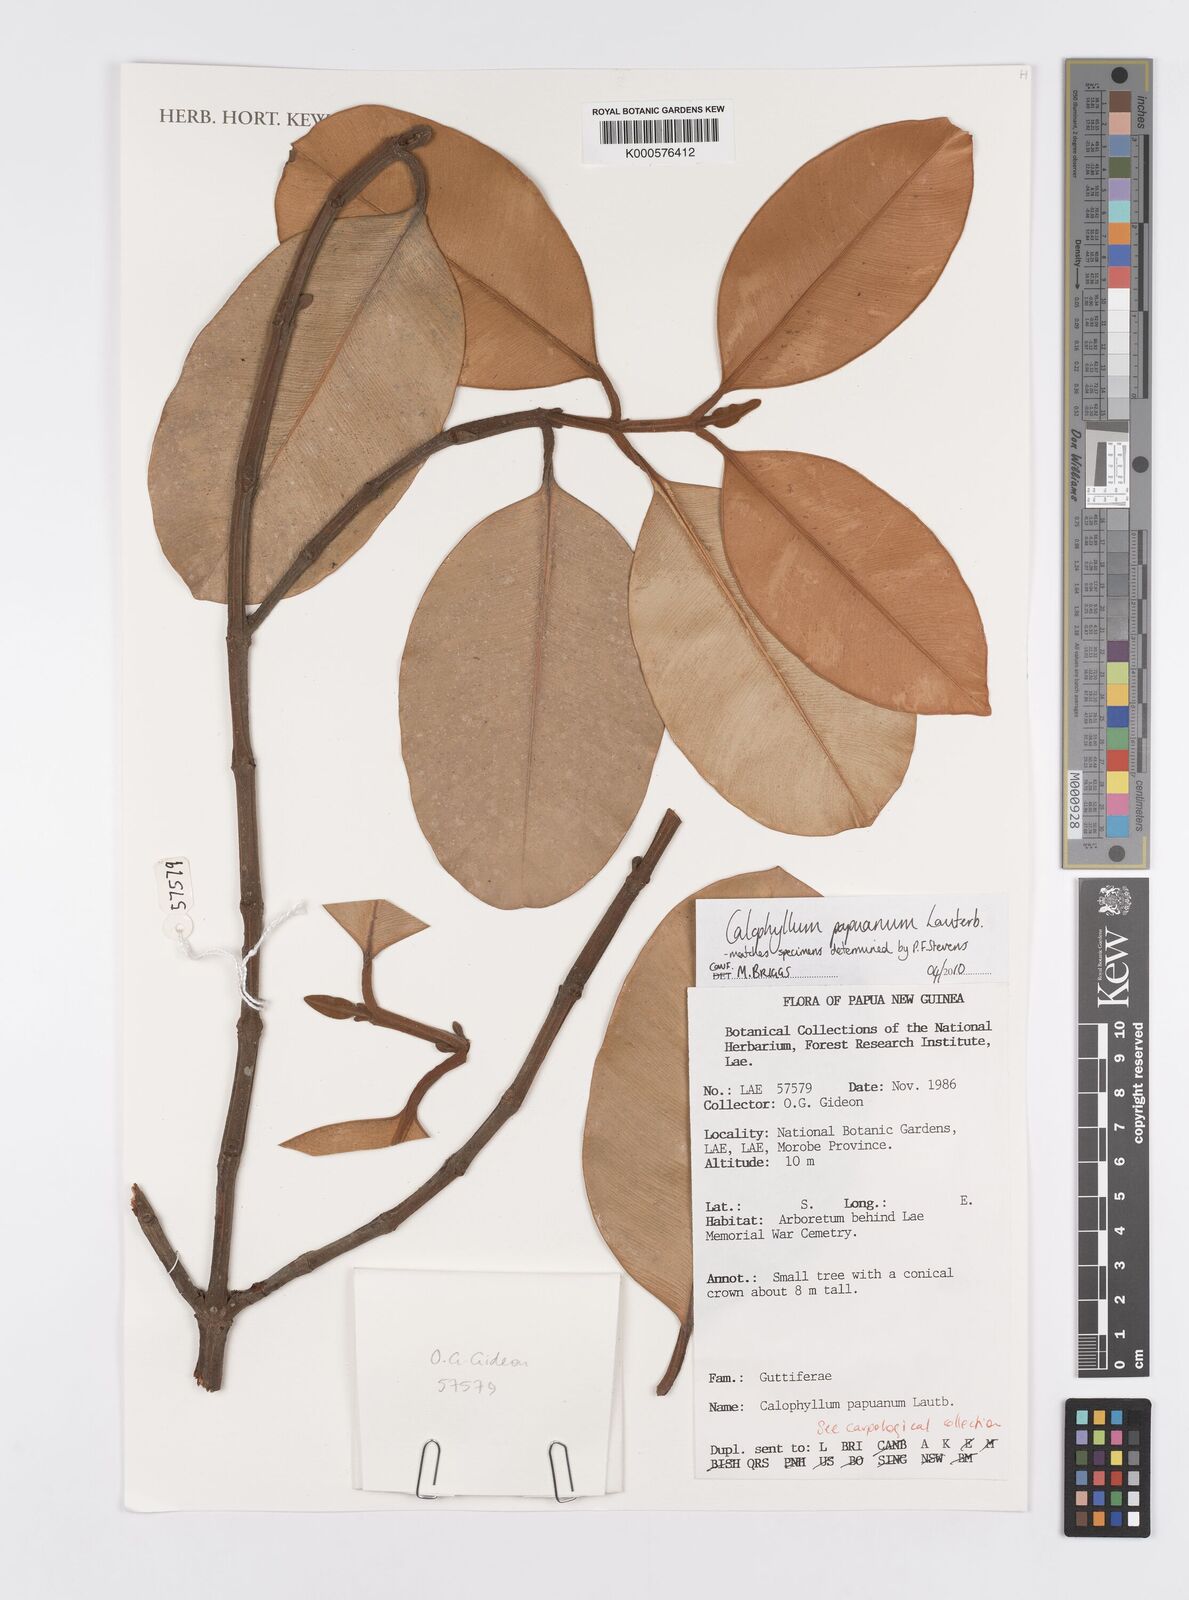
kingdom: Plantae
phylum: Tracheophyta
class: Magnoliopsida
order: Malpighiales
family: Calophyllaceae
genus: Calophyllum
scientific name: Calophyllum papuanum
